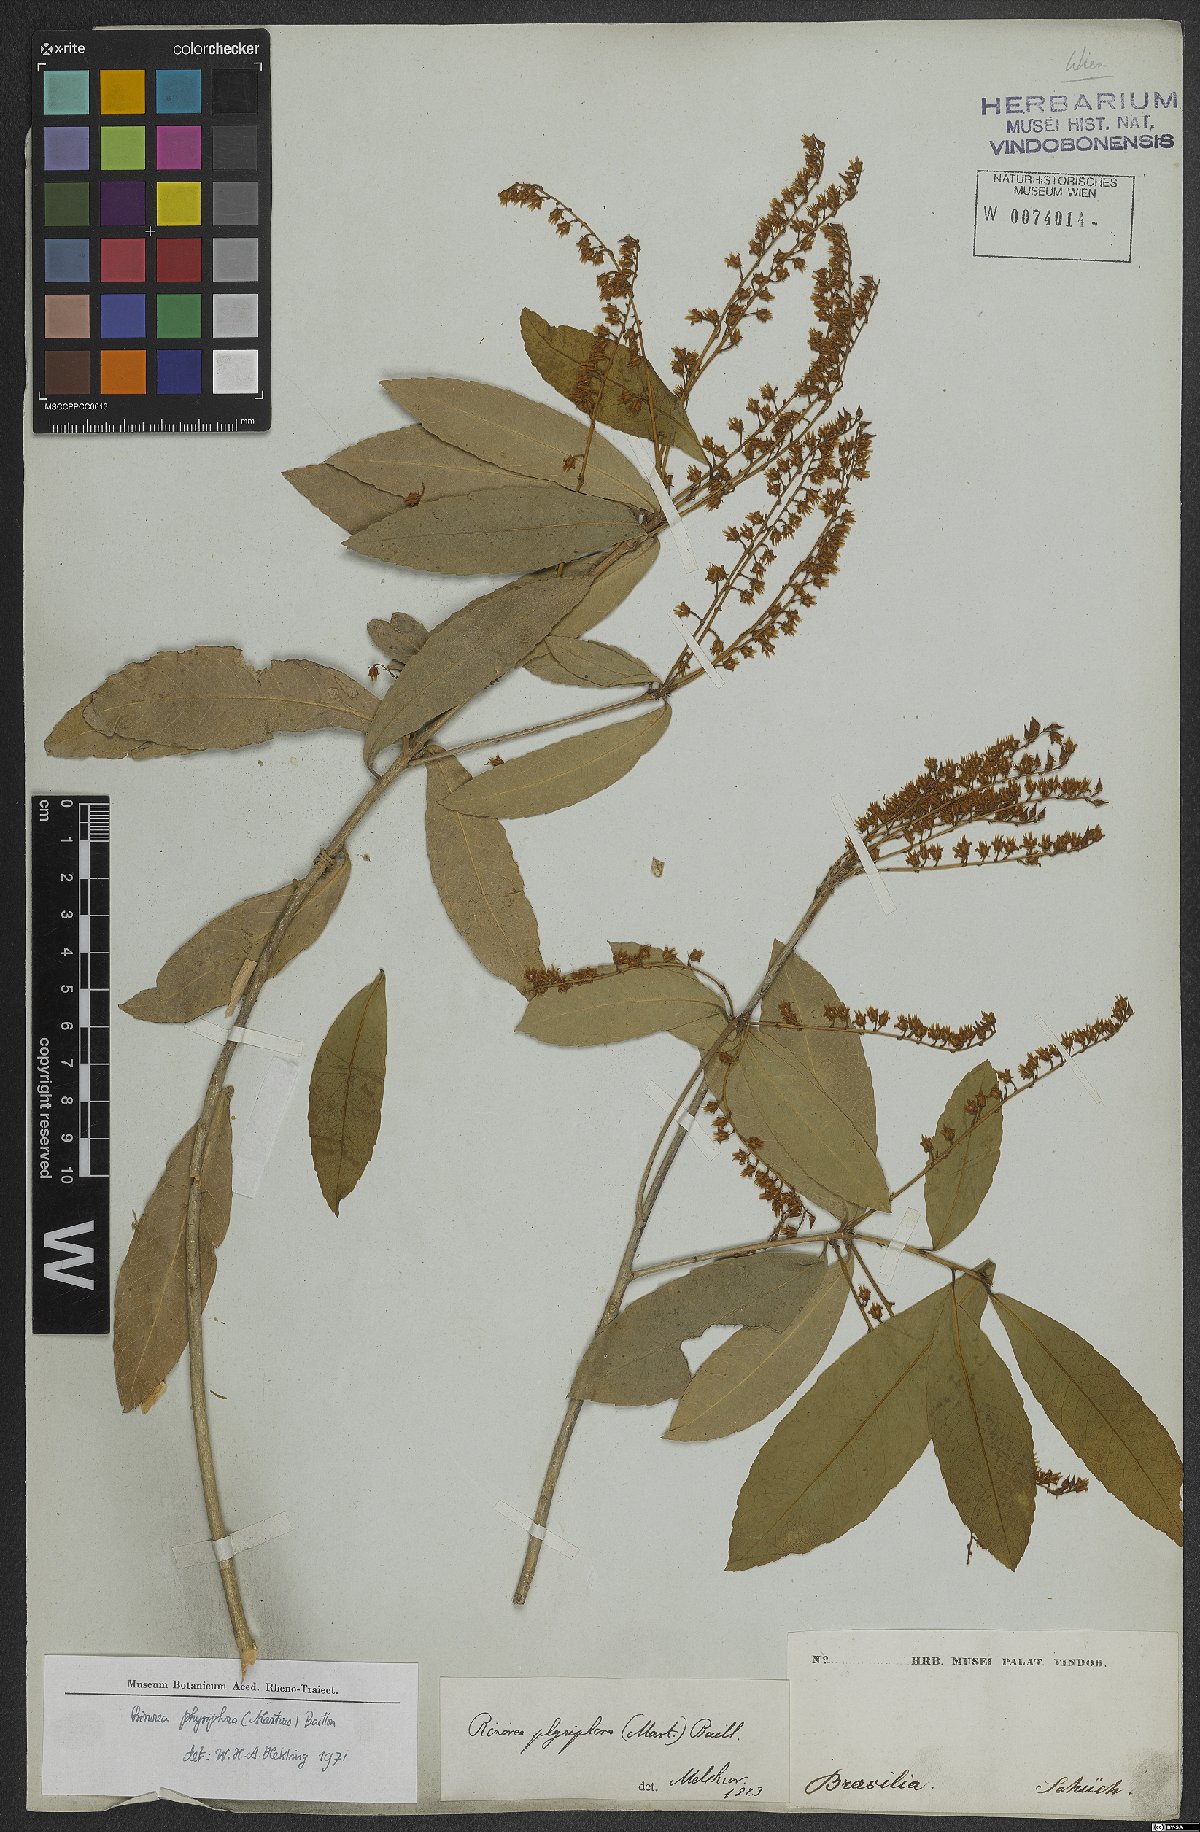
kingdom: Plantae
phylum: Tracheophyta
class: Magnoliopsida
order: Malpighiales
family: Violaceae
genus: Rinorea
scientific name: Rinorea laevigata
